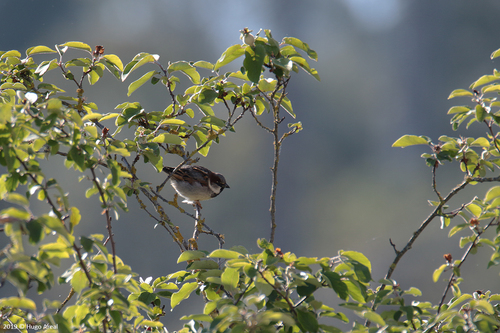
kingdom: Animalia
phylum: Chordata
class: Aves
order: Passeriformes
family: Passeridae
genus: Passer
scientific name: Passer domesticus
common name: House sparrow
